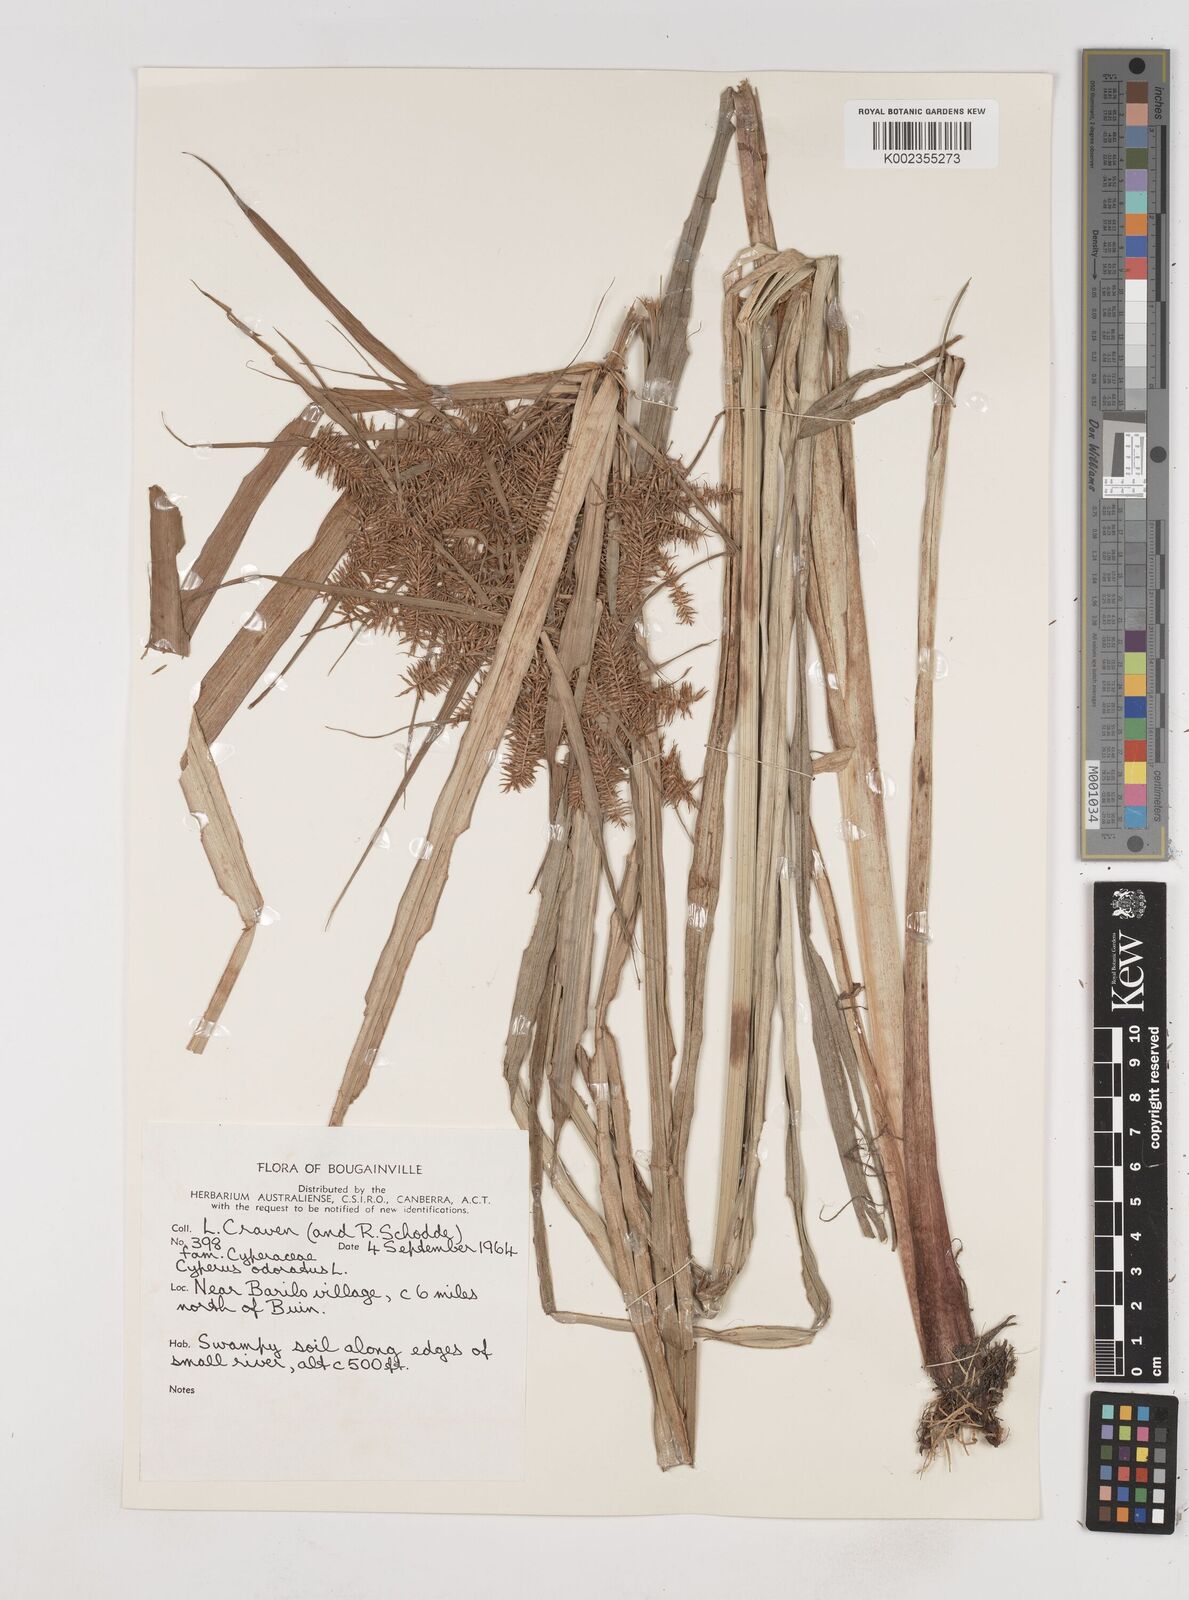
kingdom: Plantae
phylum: Tracheophyta
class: Liliopsida
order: Poales
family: Cyperaceae
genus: Cyperus
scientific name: Cyperus odoratus
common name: Fragrant flatsedge
